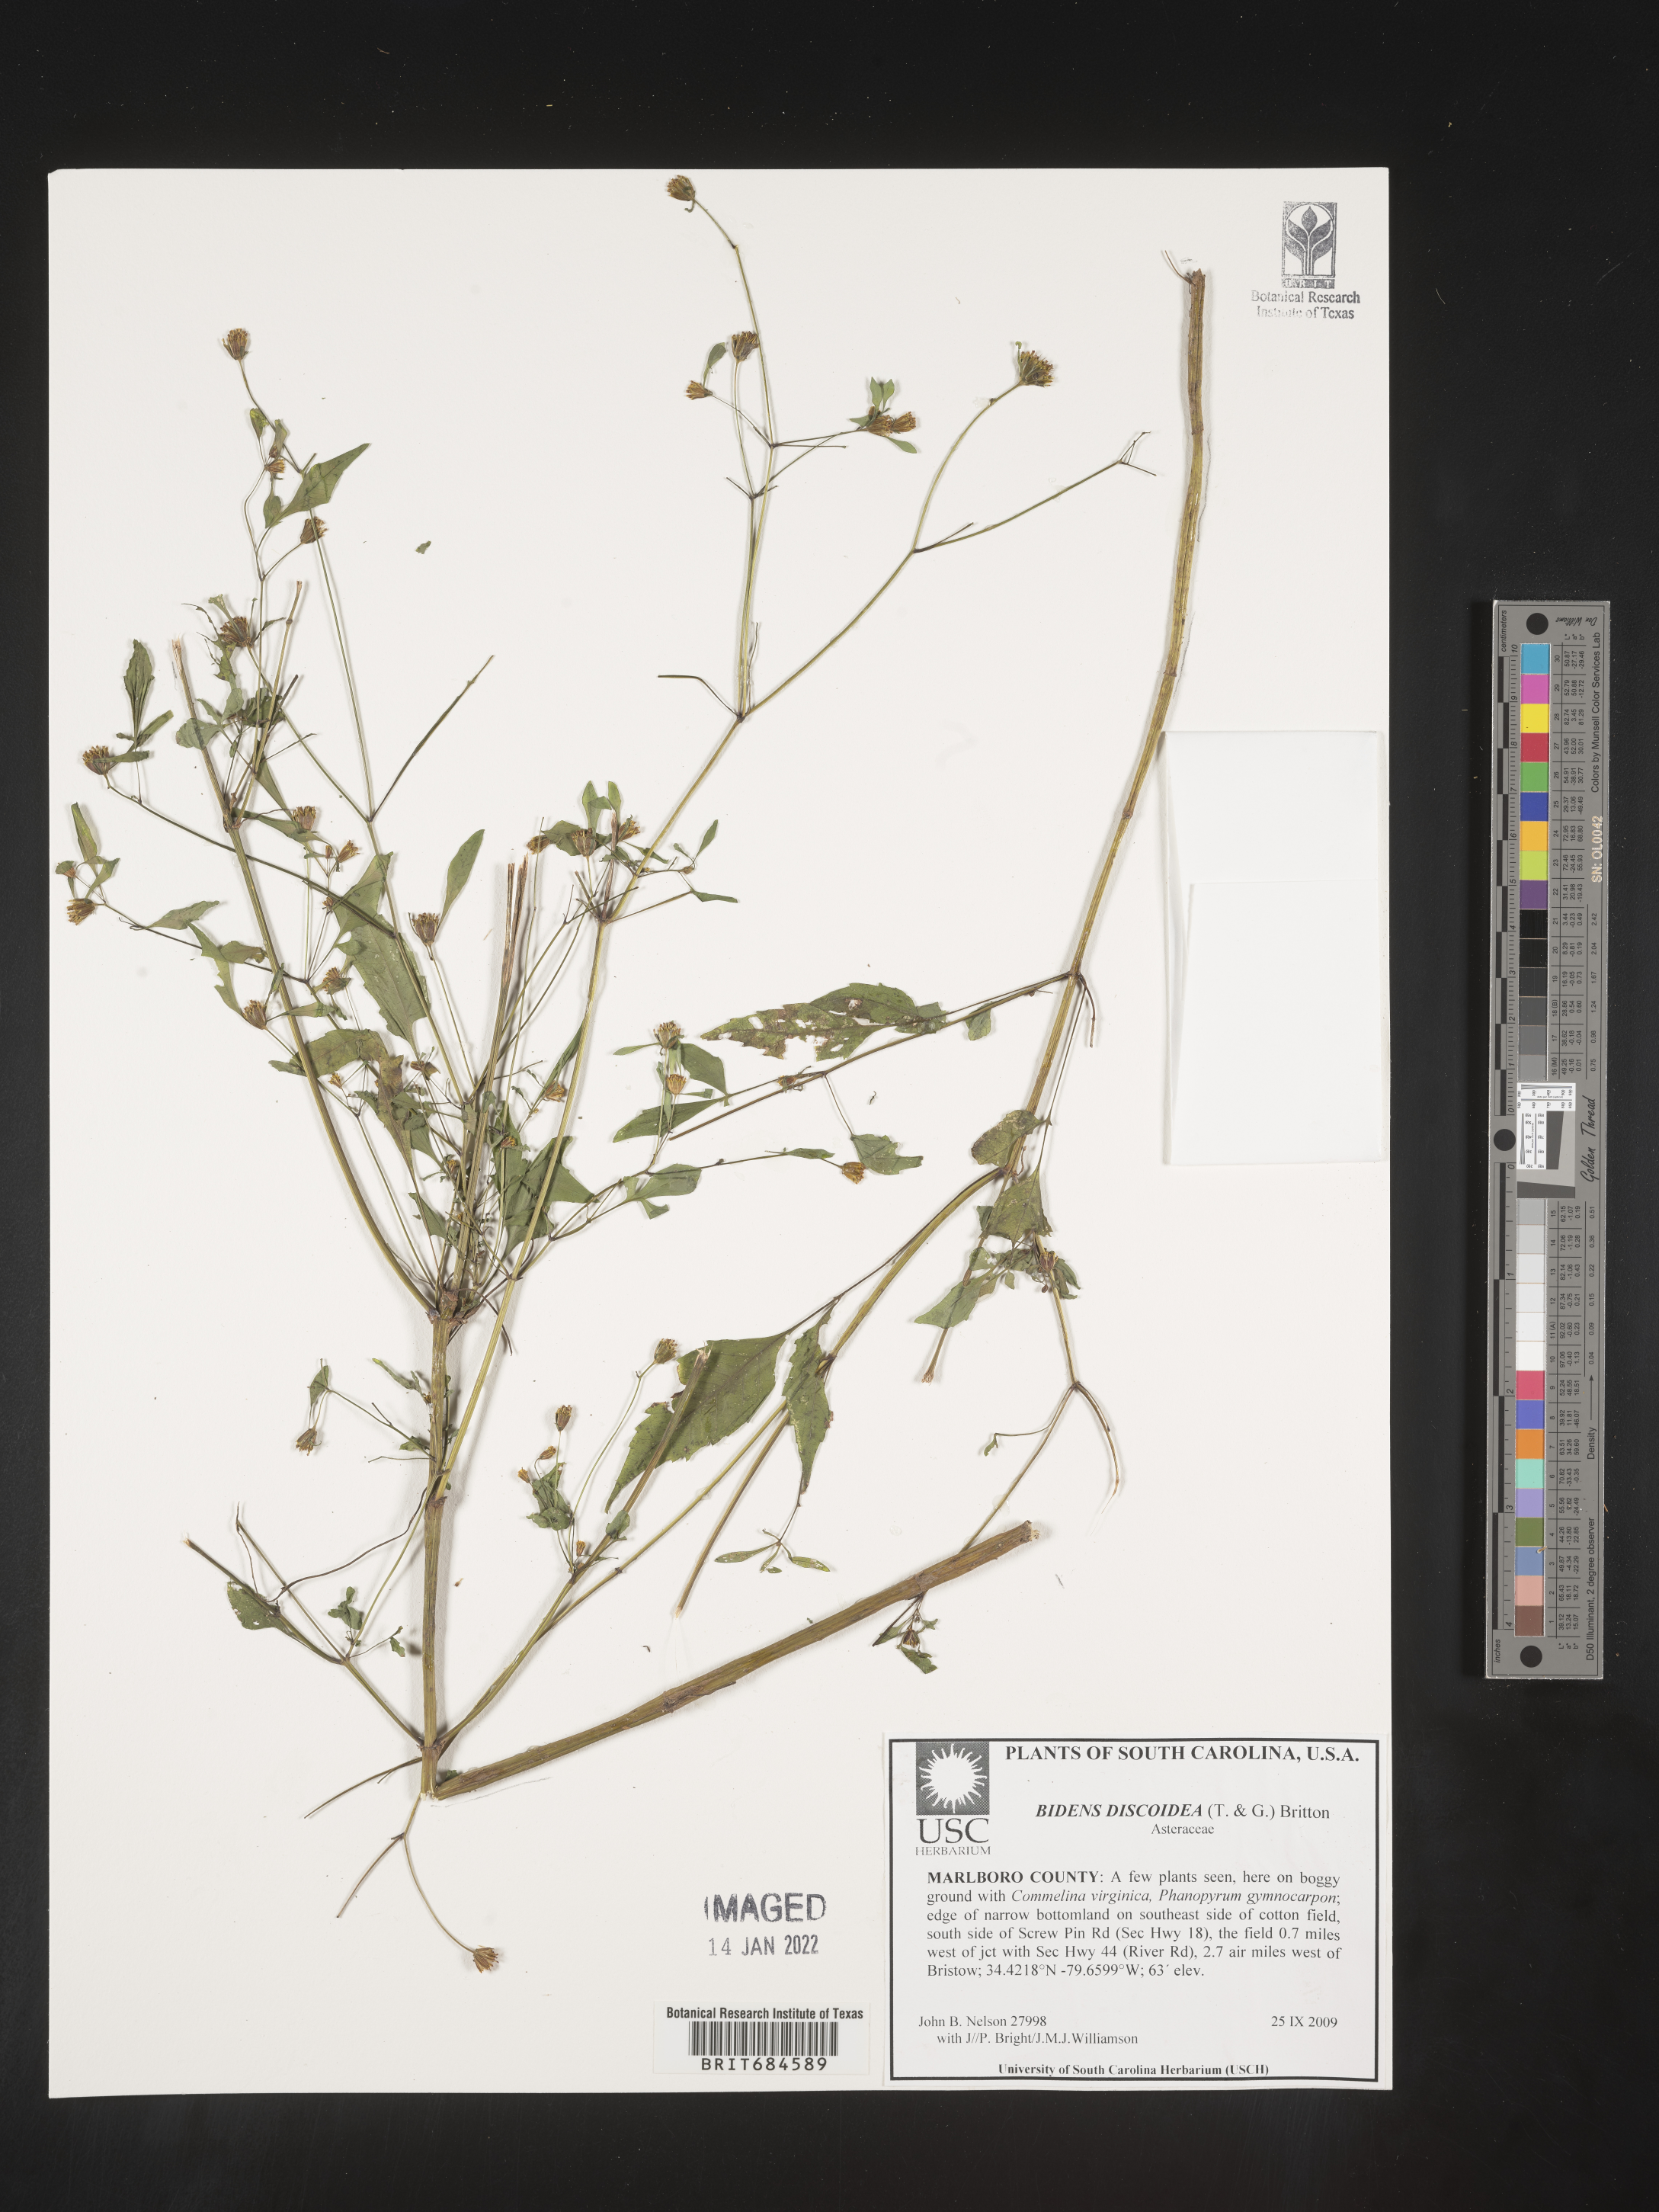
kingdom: Plantae
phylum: Tracheophyta
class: Magnoliopsida
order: Asterales
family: Asteraceae
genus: Bidens
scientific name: Bidens discoidea
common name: Discoide beggarticks
